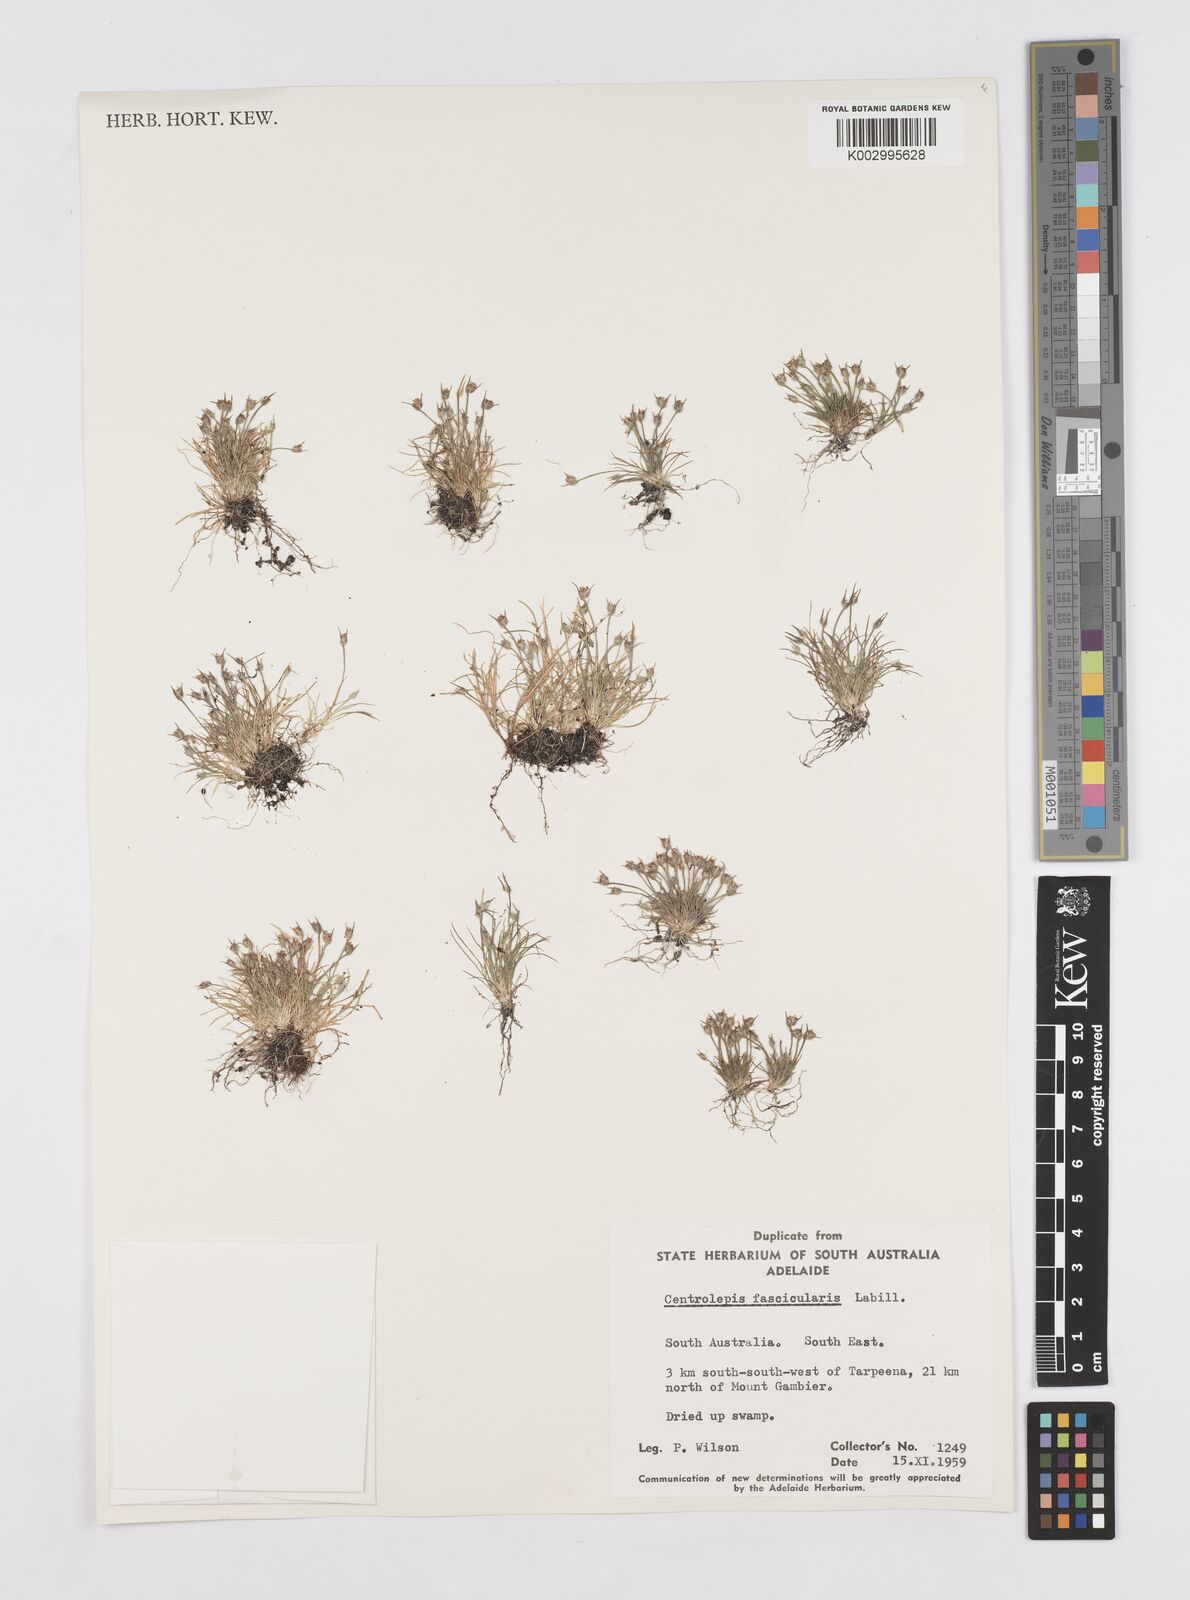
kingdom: Plantae
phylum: Tracheophyta
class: Liliopsida
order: Poales
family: Restionaceae
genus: Centrolepis
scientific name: Centrolepis fascicularis
